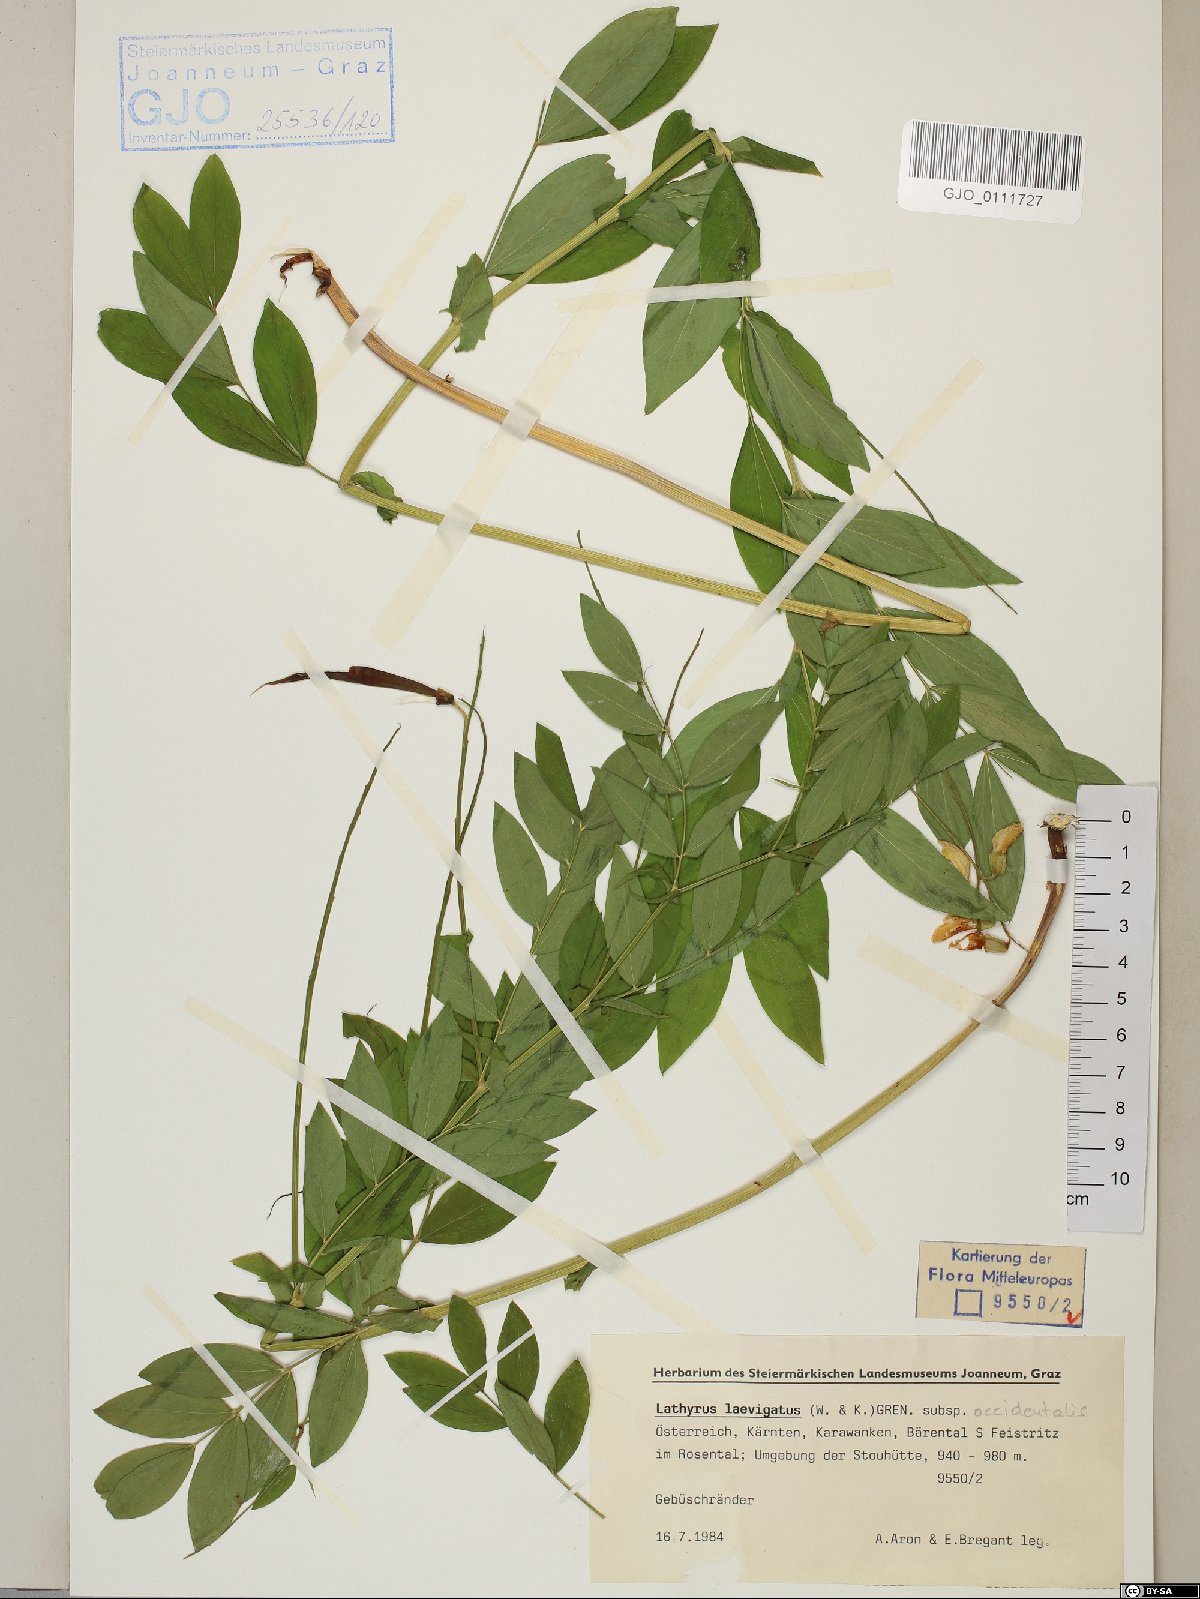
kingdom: Plantae
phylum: Tracheophyta
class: Magnoliopsida
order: Fabales
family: Fabaceae
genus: Lathyrus
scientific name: Lathyrus laevigatus
